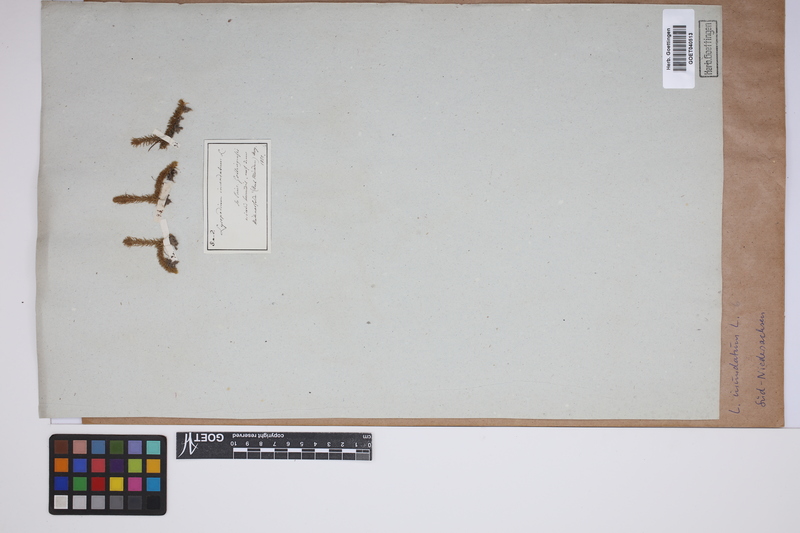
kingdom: Plantae
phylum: Tracheophyta
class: Lycopodiopsida
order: Lycopodiales
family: Lycopodiaceae
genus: Lycopodiella
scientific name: Lycopodiella inundata
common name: Marsh clubmoss
